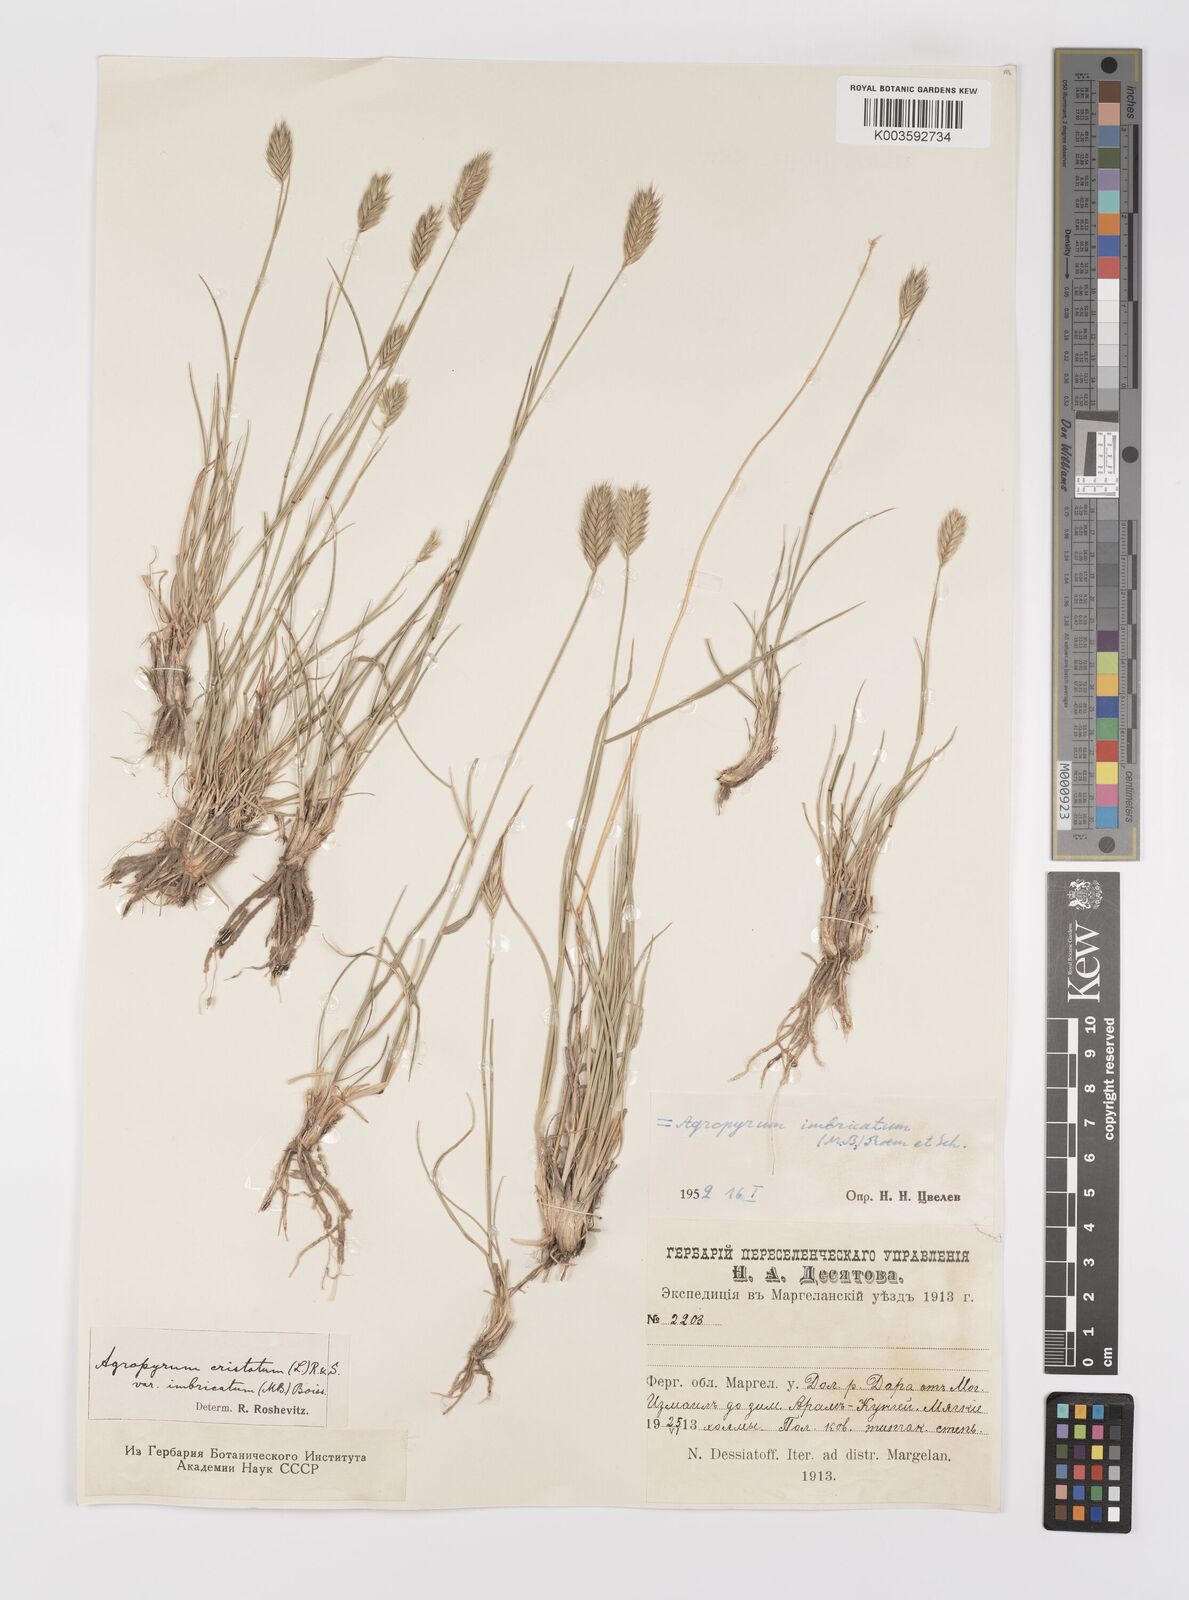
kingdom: Plantae
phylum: Tracheophyta
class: Liliopsida
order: Poales
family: Poaceae
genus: Agropyron
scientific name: Agropyron cristatum
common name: Crested wheatgrass
